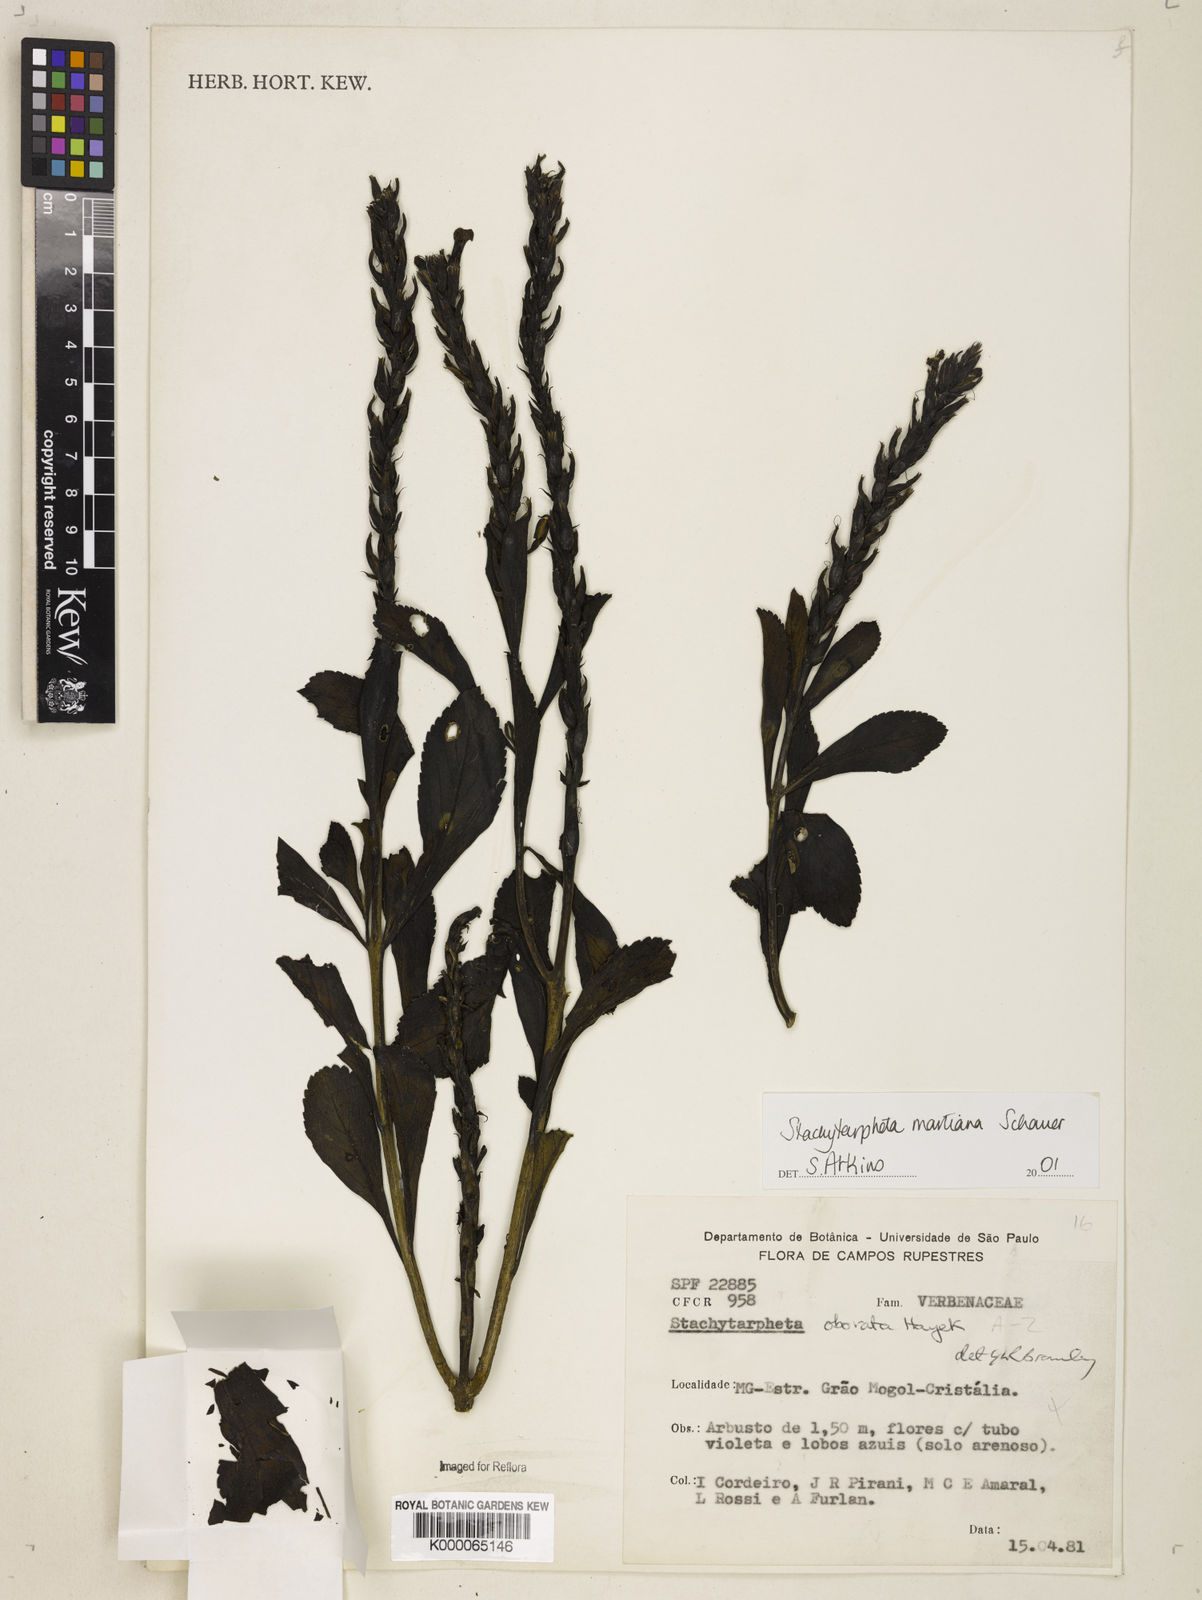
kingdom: Plantae
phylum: Tracheophyta
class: Magnoliopsida
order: Lamiales
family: Verbenaceae
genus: Stachytarpheta
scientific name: Stachytarpheta martiana
